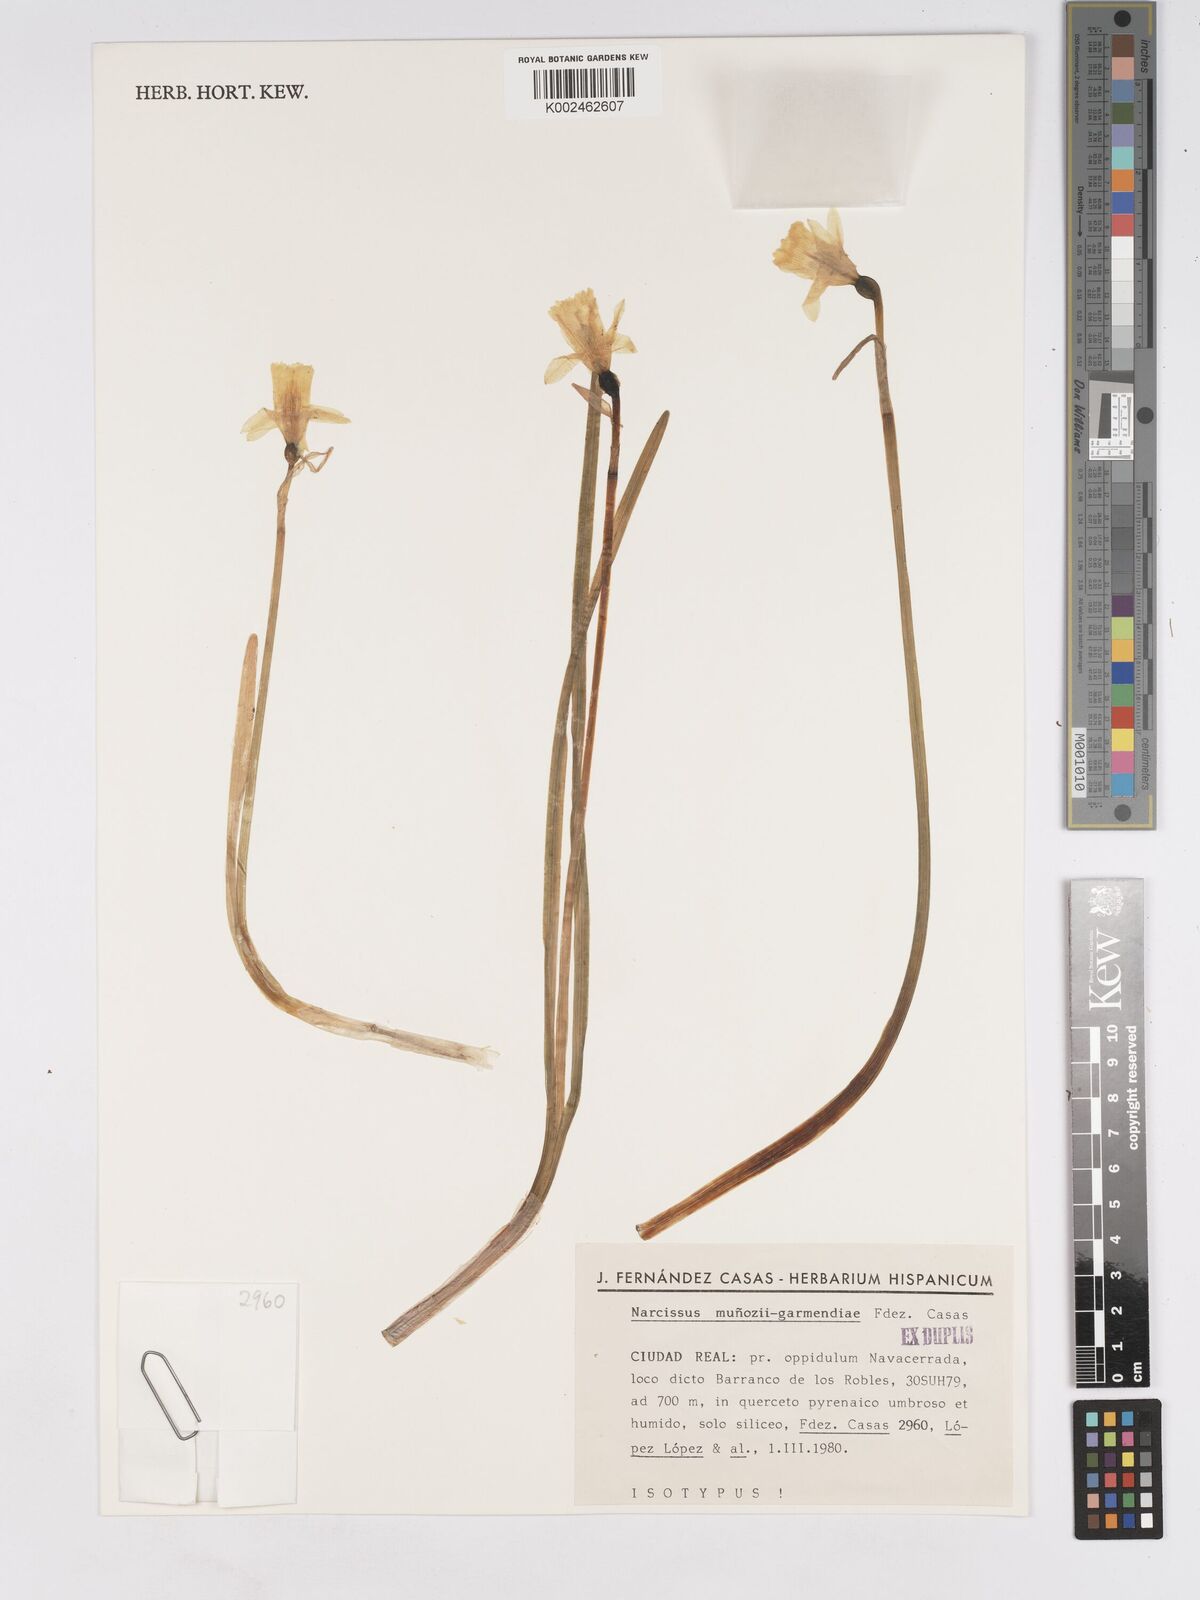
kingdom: Plantae
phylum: Tracheophyta
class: Liliopsida
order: Asparagales
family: Amaryllidaceae
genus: Narcissus
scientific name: Narcissus munozii-garmendiae
